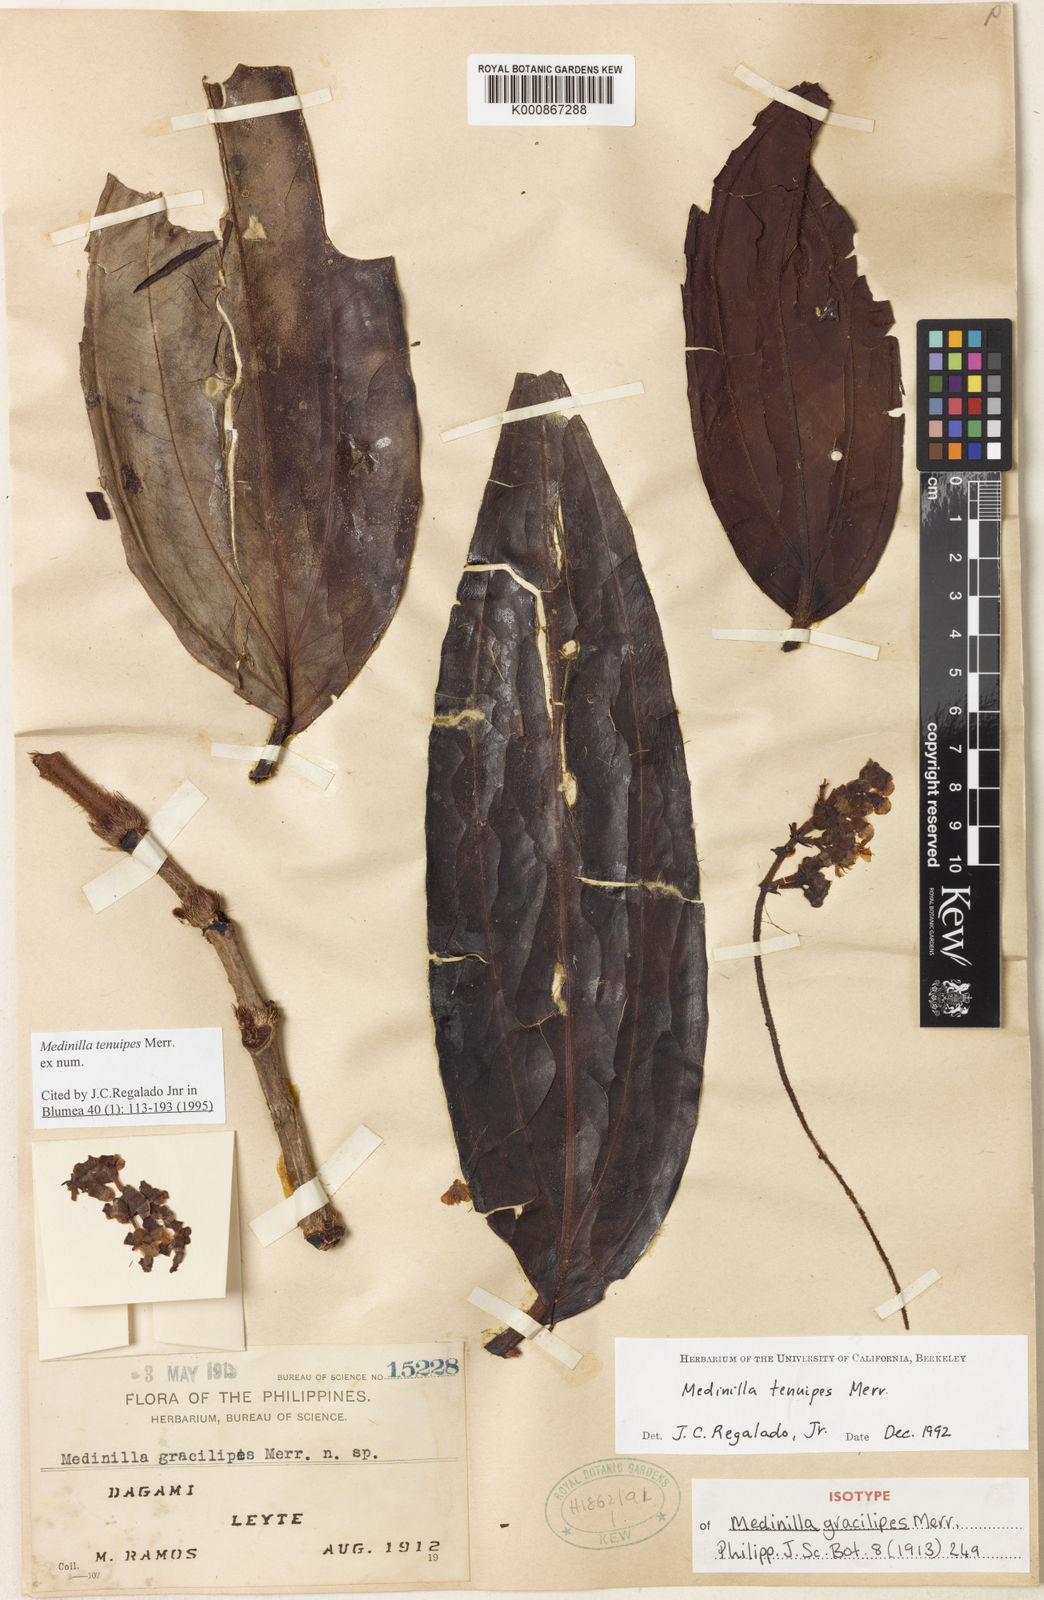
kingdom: Plantae
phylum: Tracheophyta
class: Magnoliopsida
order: Myrtales
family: Melastomataceae
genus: Medinilla
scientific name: Medinilla tenuipes
